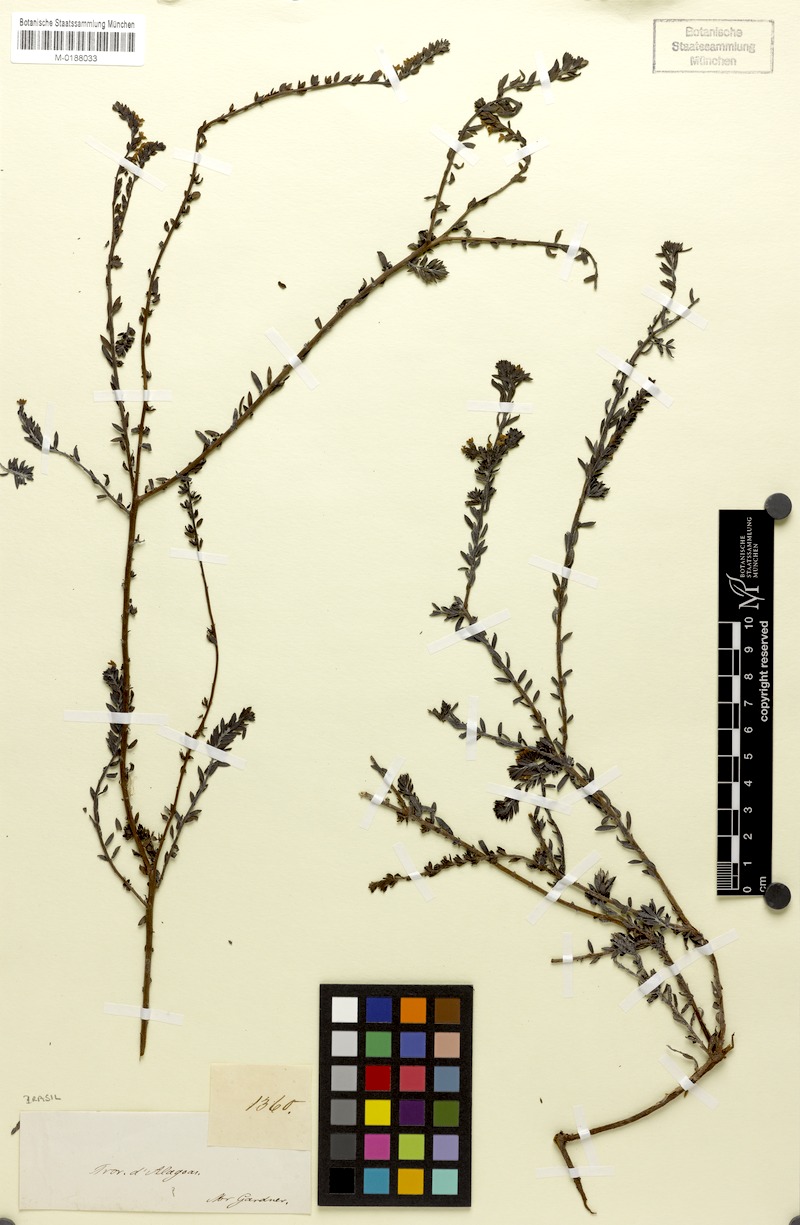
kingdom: Plantae
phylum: Tracheophyta
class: Magnoliopsida
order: Boraginales
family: Heliotropiaceae
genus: Euploca
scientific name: Euploca polyphylla
